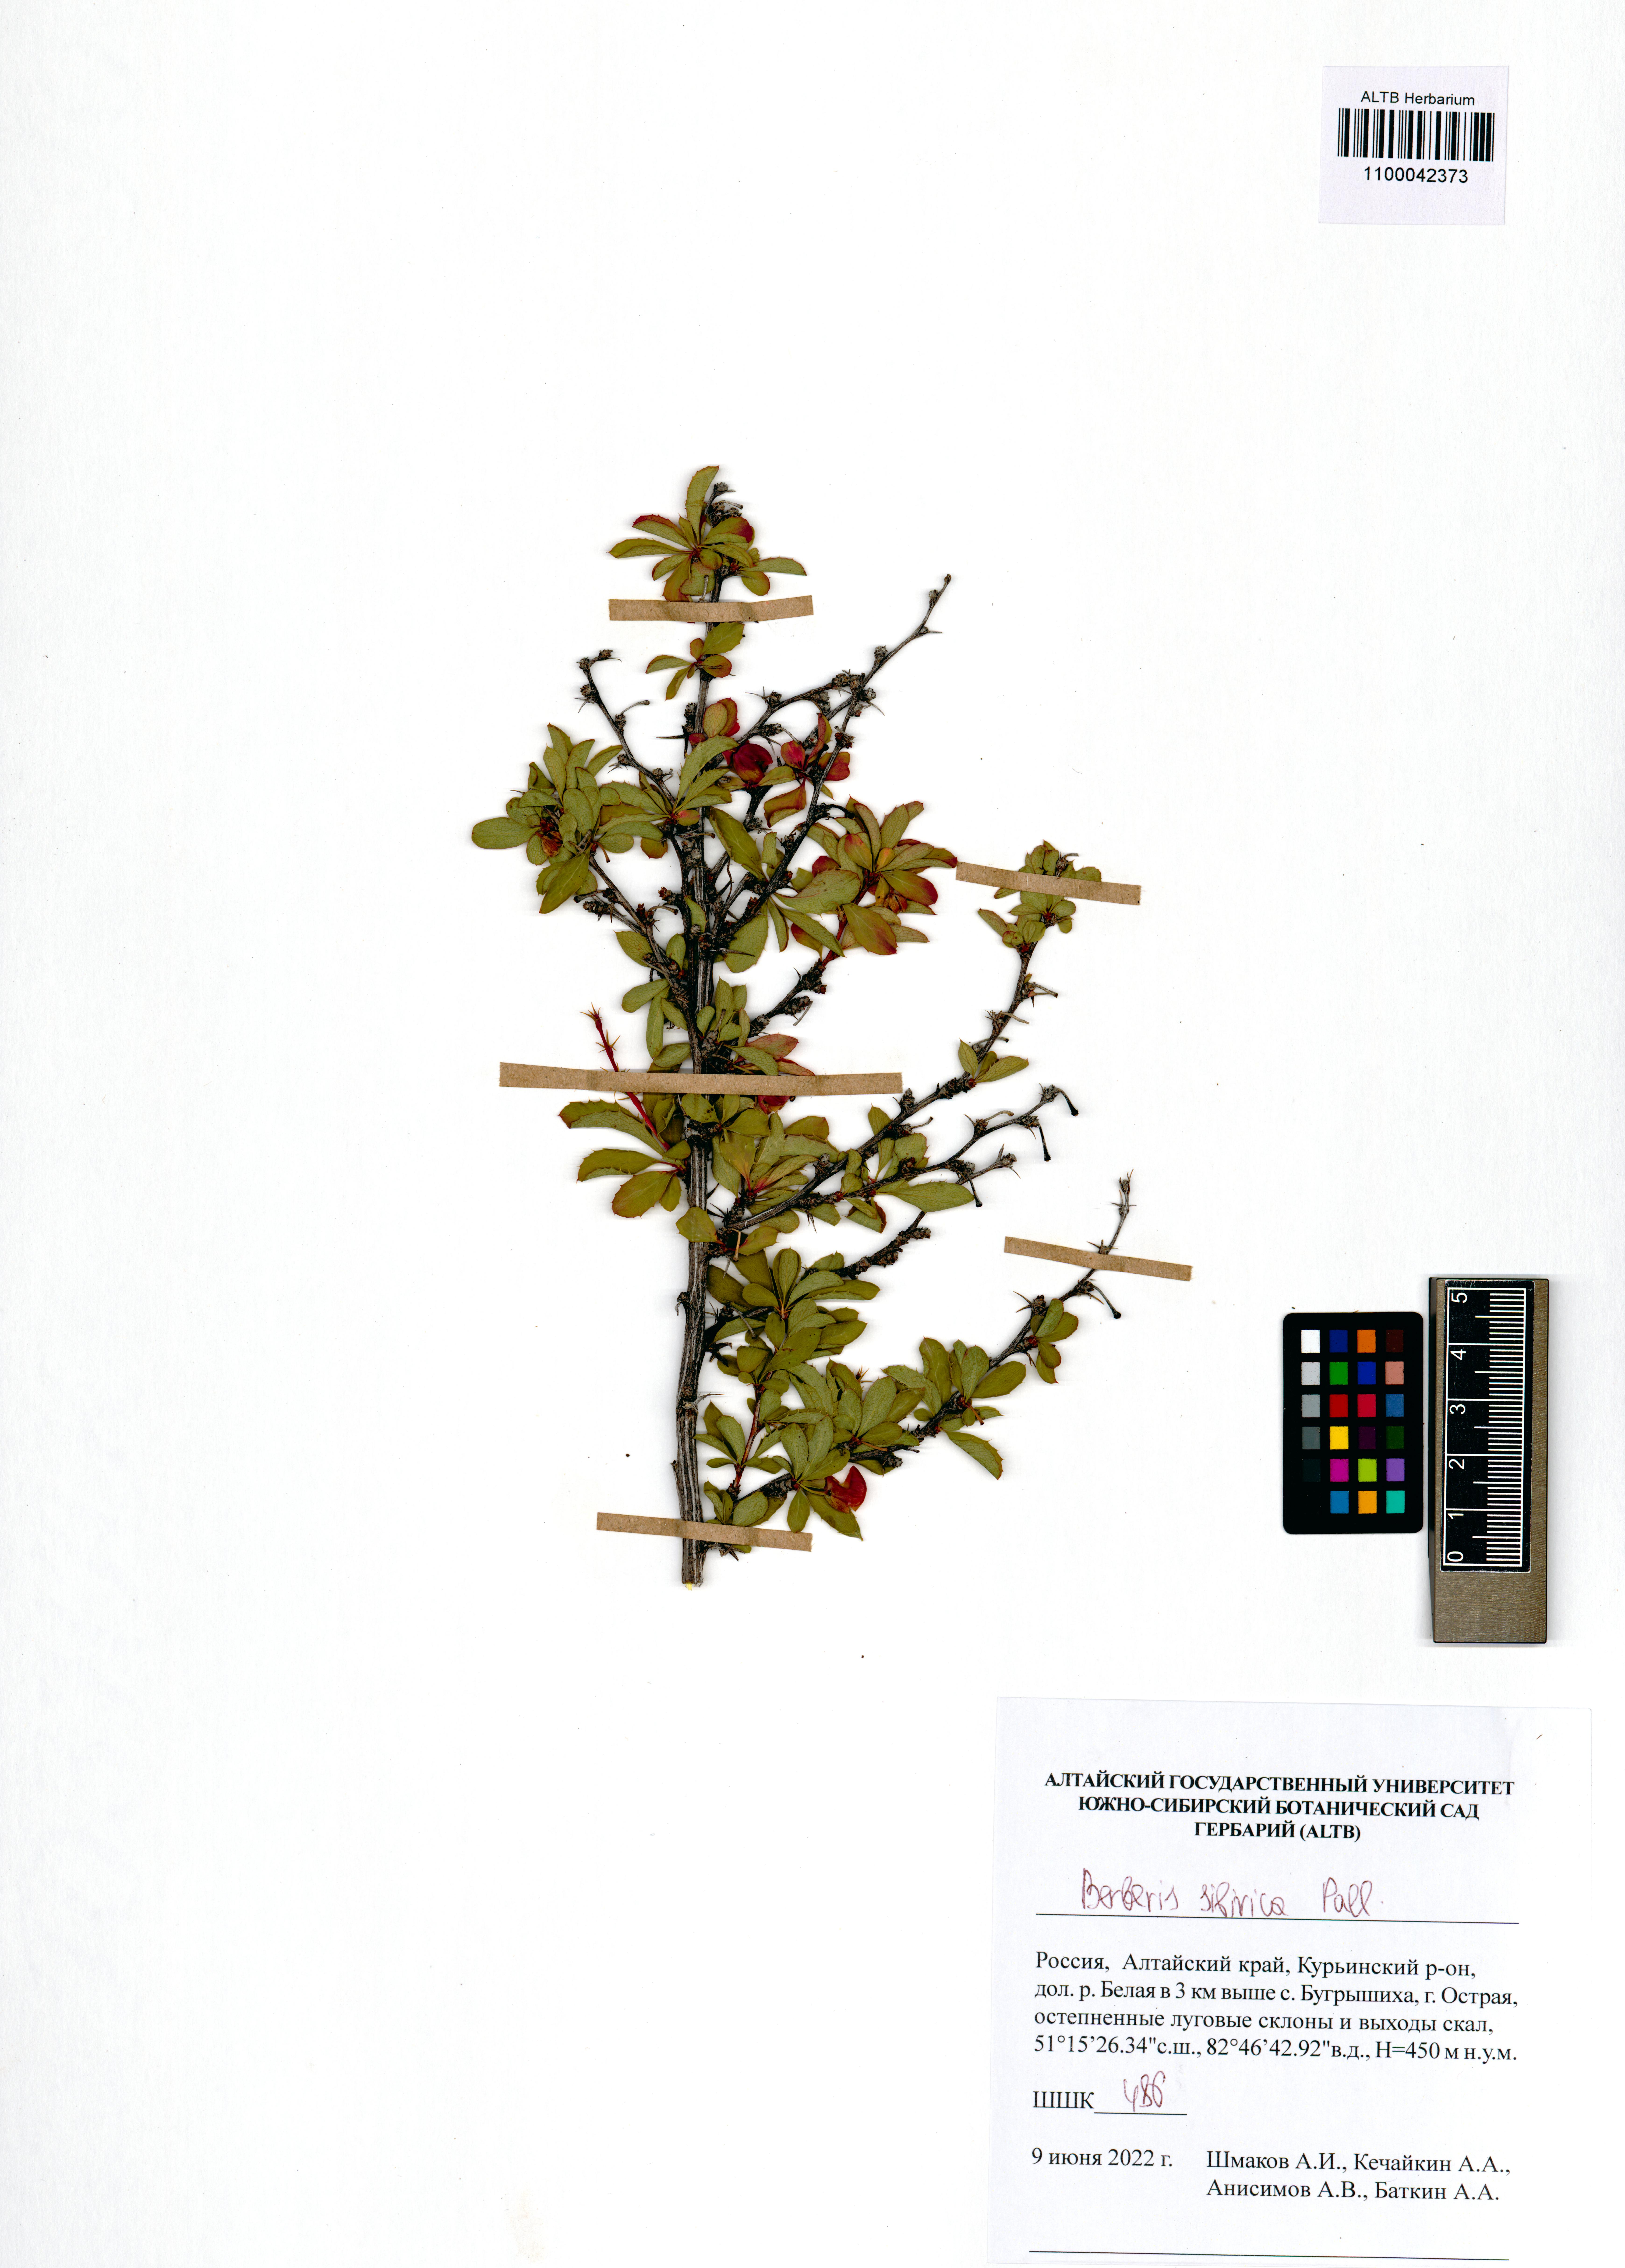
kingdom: Plantae
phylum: Tracheophyta
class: Magnoliopsida
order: Ranunculales
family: Berberidaceae
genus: Berberis
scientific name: Berberis sibirica
